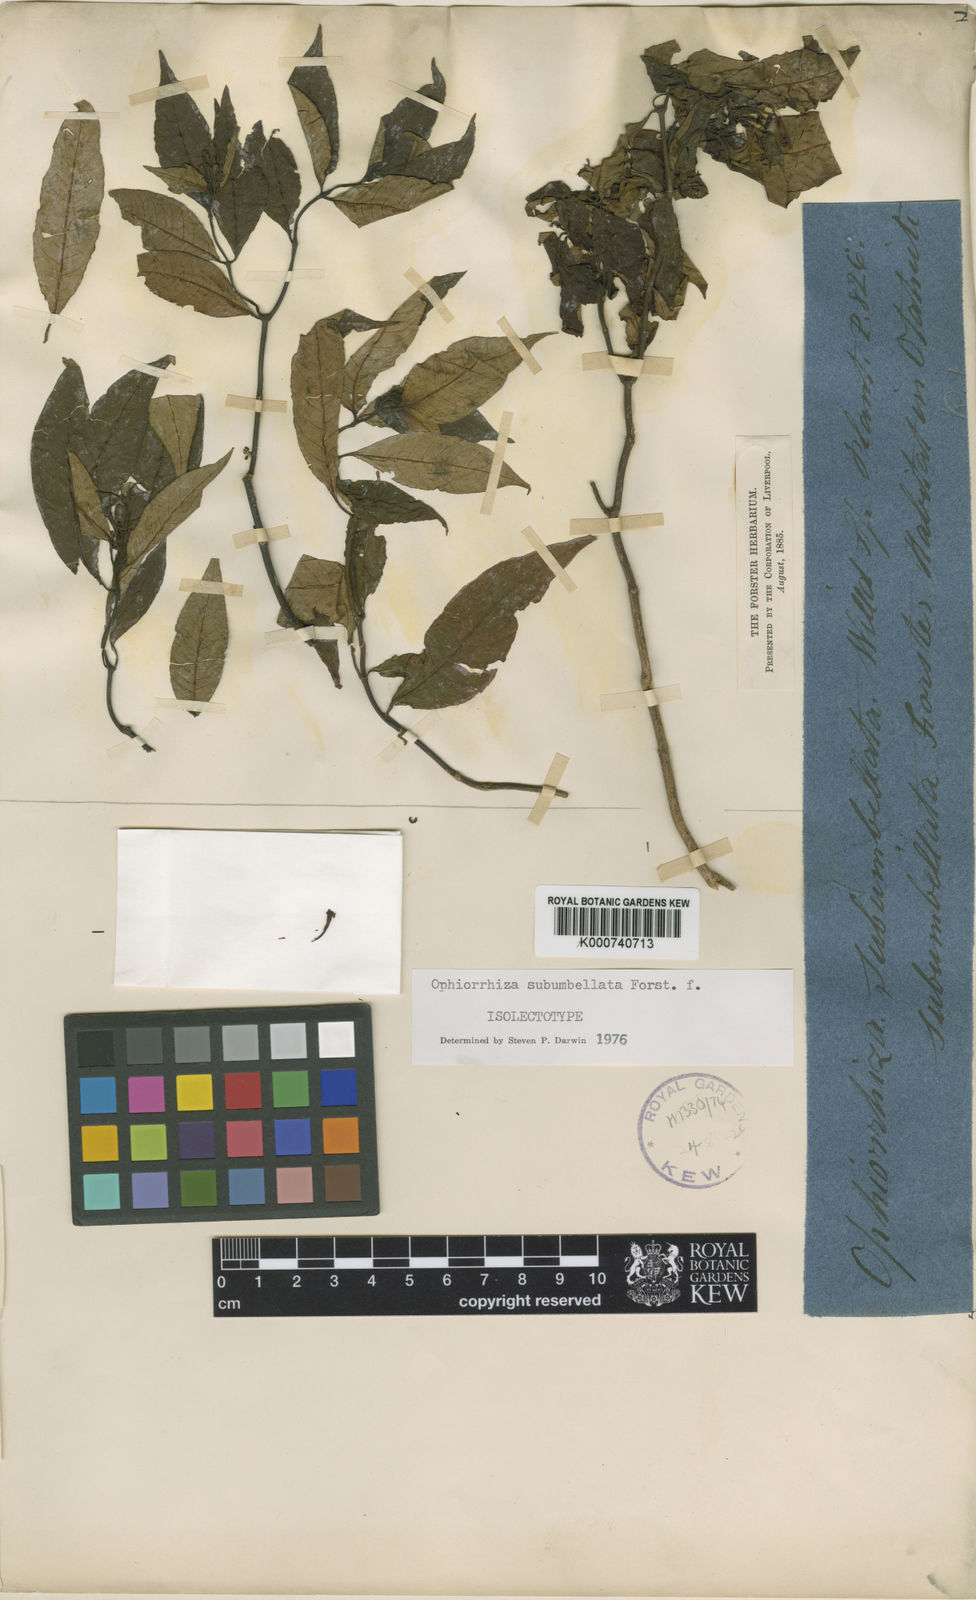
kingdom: Plantae
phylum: Tracheophyta
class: Magnoliopsida
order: Gentianales
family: Rubiaceae
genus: Ophiorrhiza
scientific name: Ophiorrhiza subumbellata
